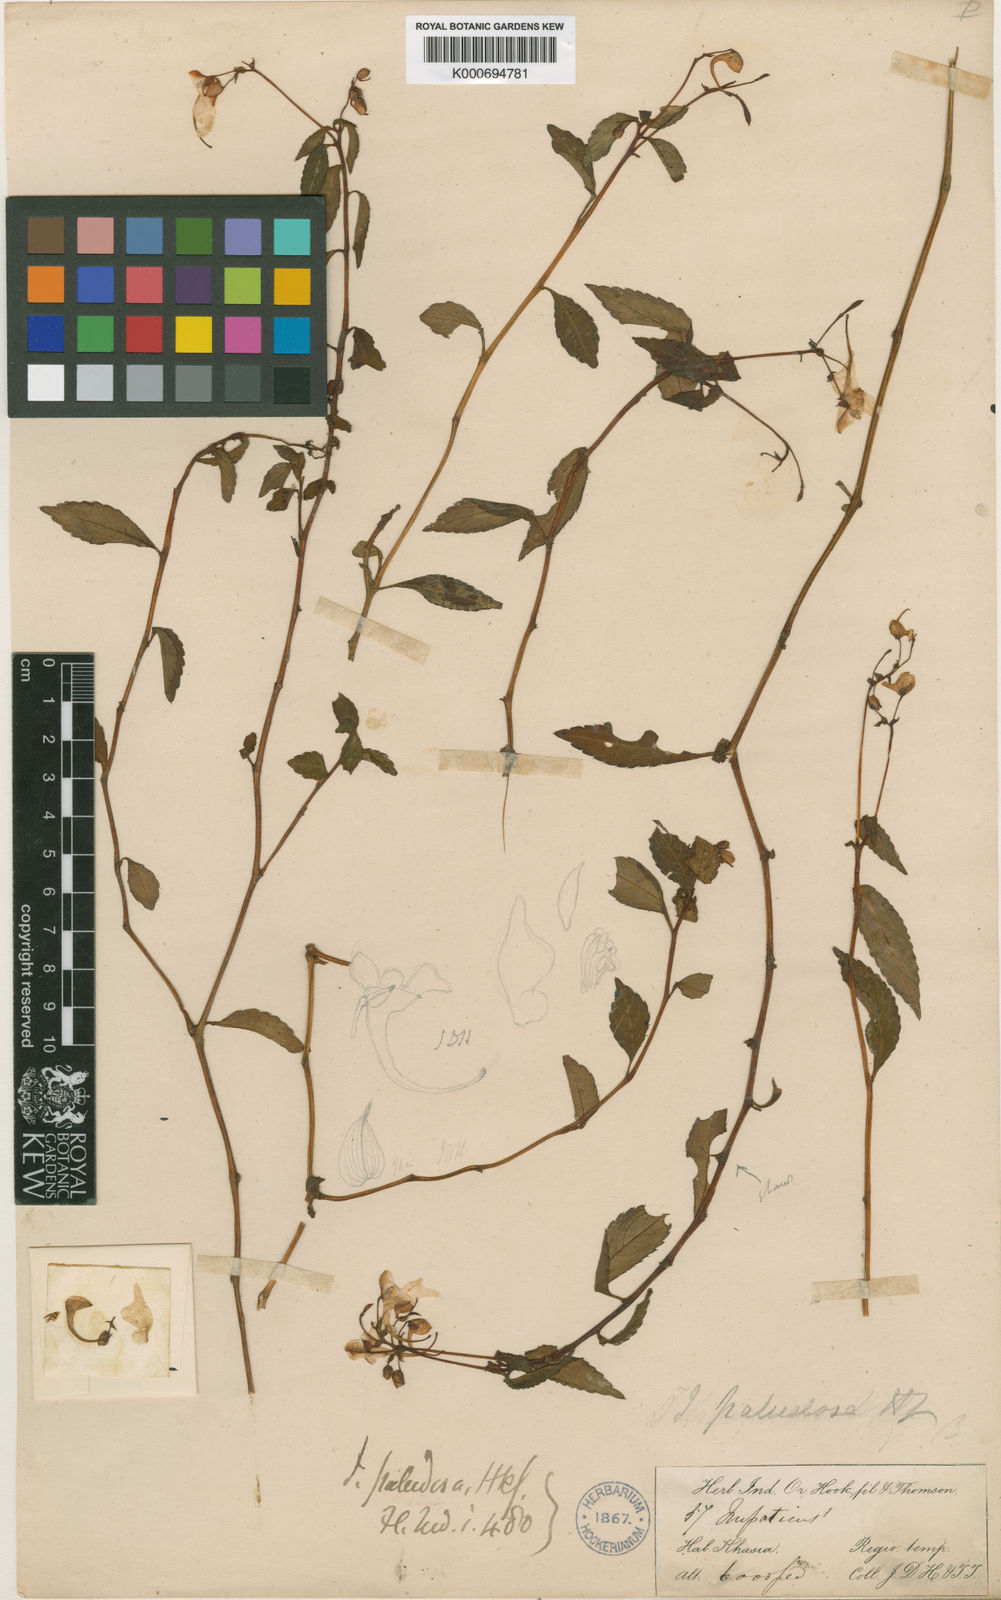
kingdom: Plantae
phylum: Tracheophyta
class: Magnoliopsida
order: Ericales
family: Balsaminaceae
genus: Impatiens
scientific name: Impatiens paludosa
